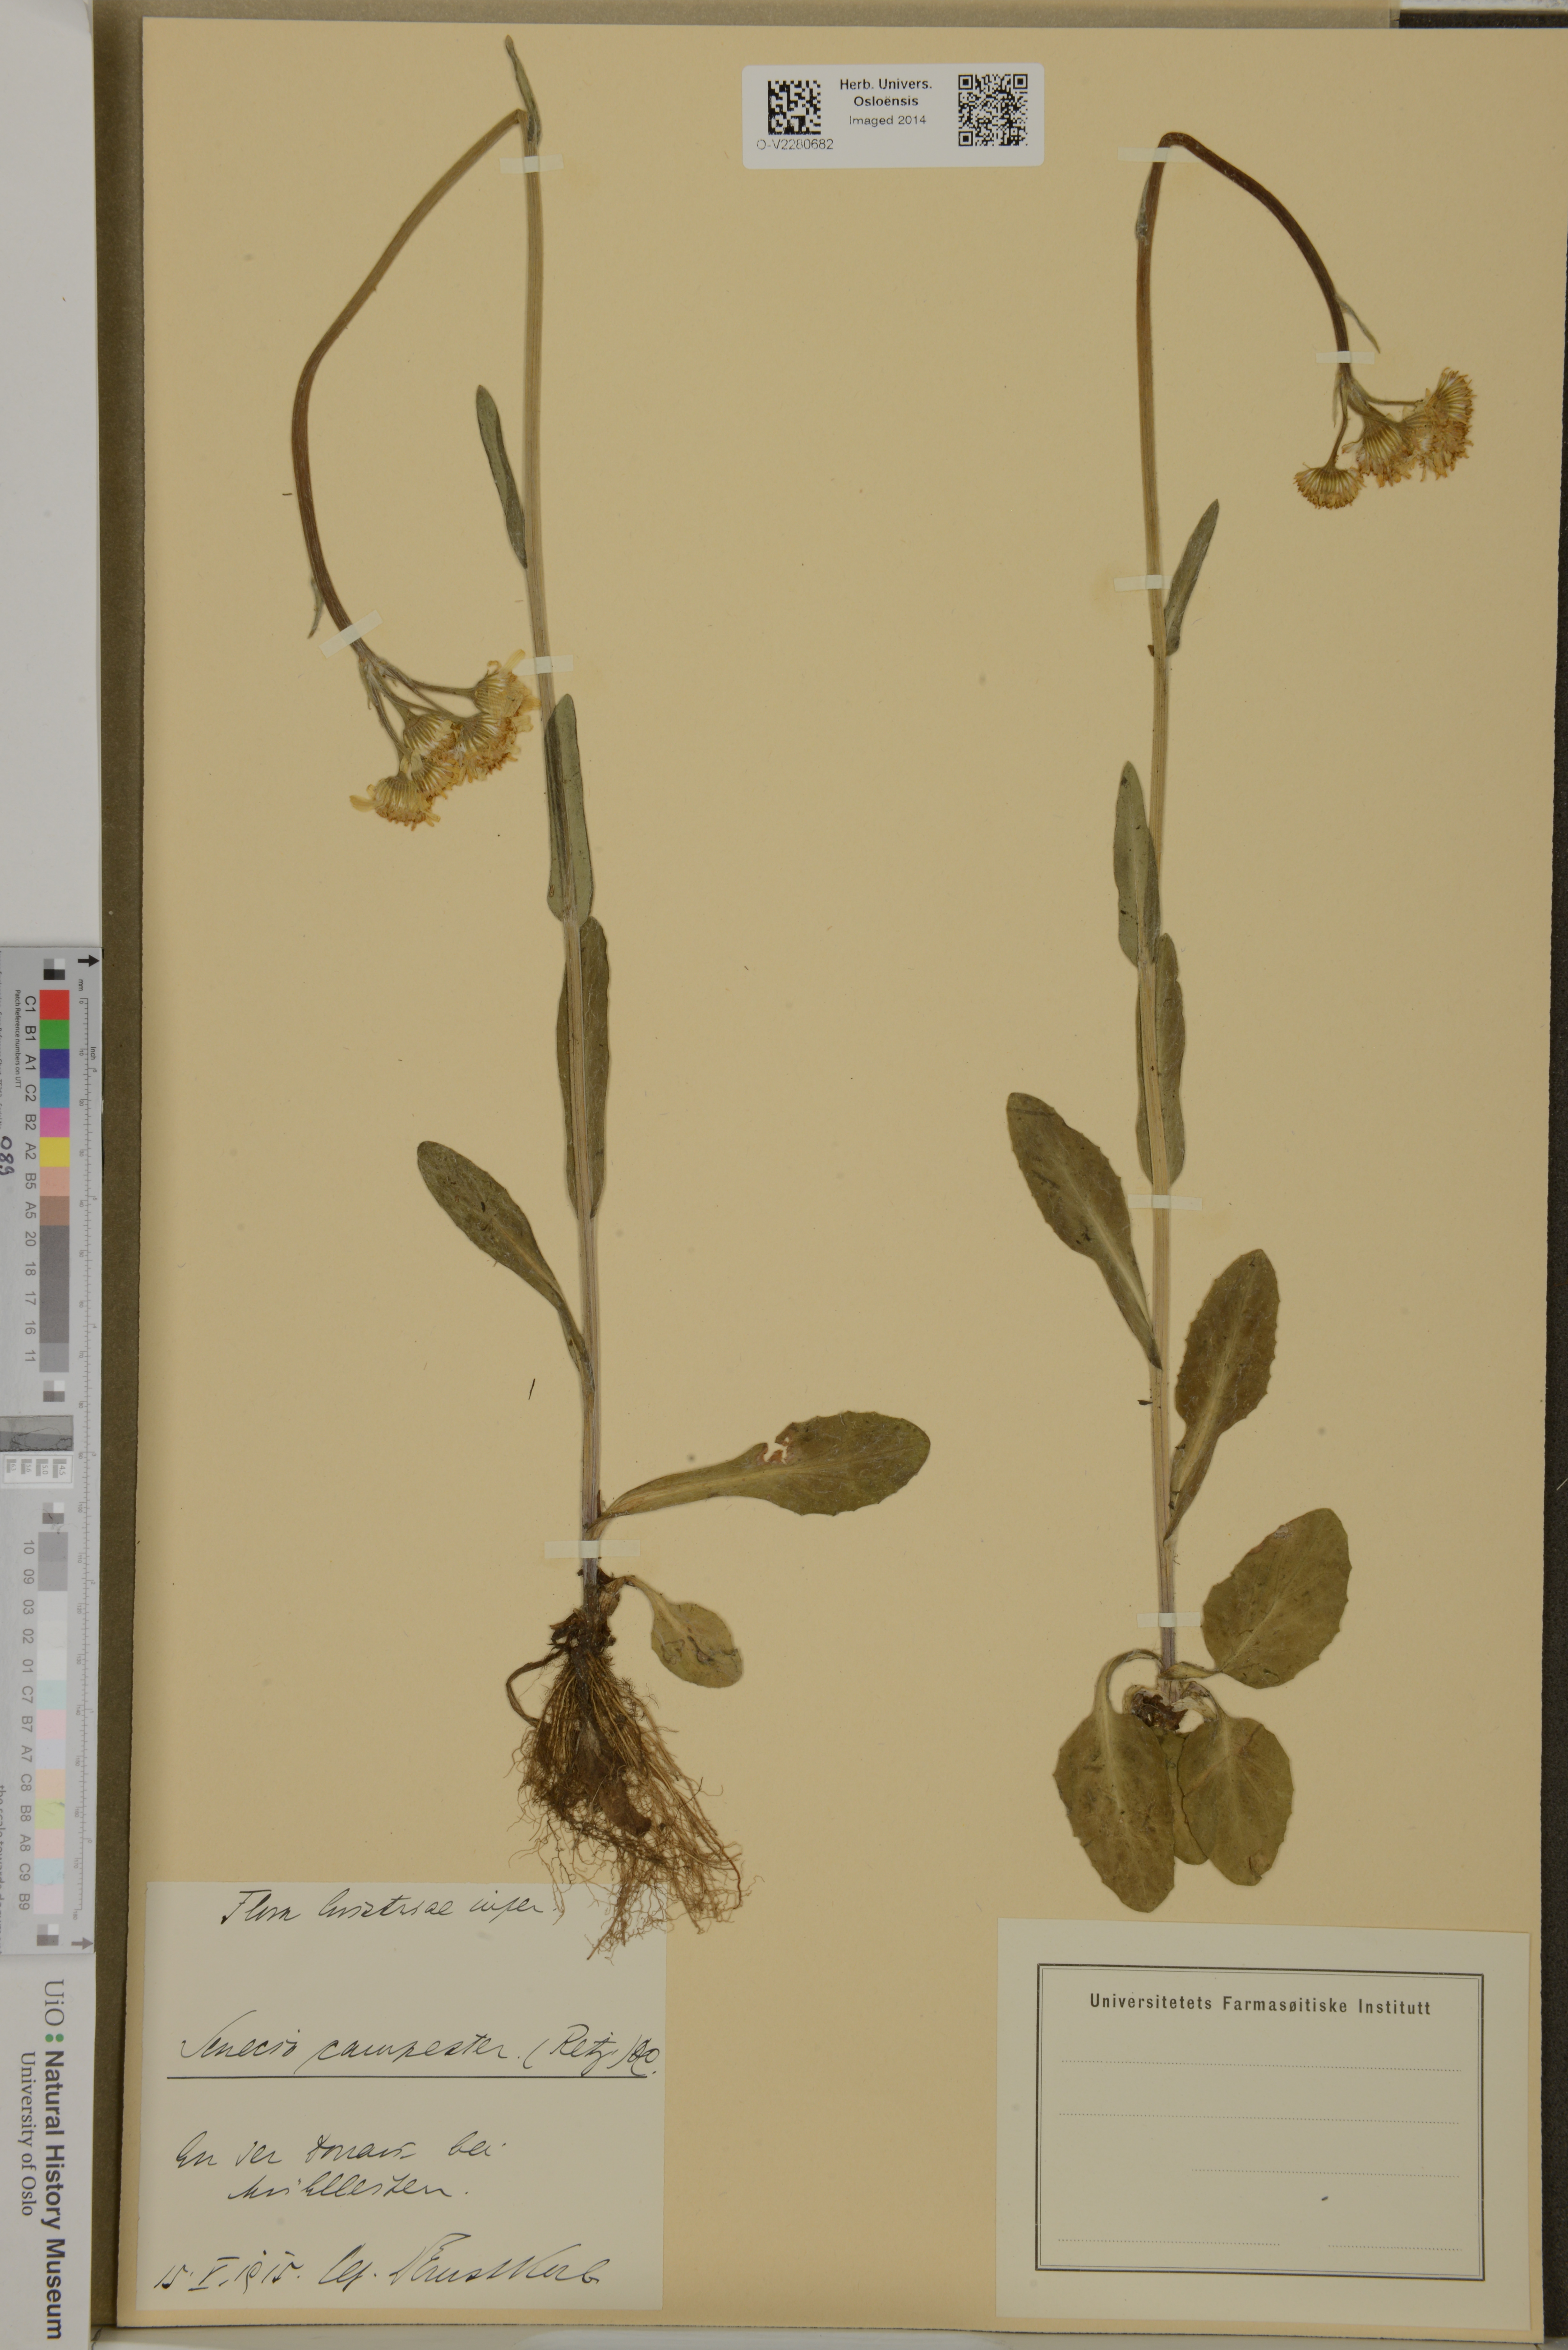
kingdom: Plantae
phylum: Tracheophyta
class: Magnoliopsida
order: Asterales
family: Asteraceae
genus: Tephroseris
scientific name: Tephroseris integrifolia
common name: Field fleawort
